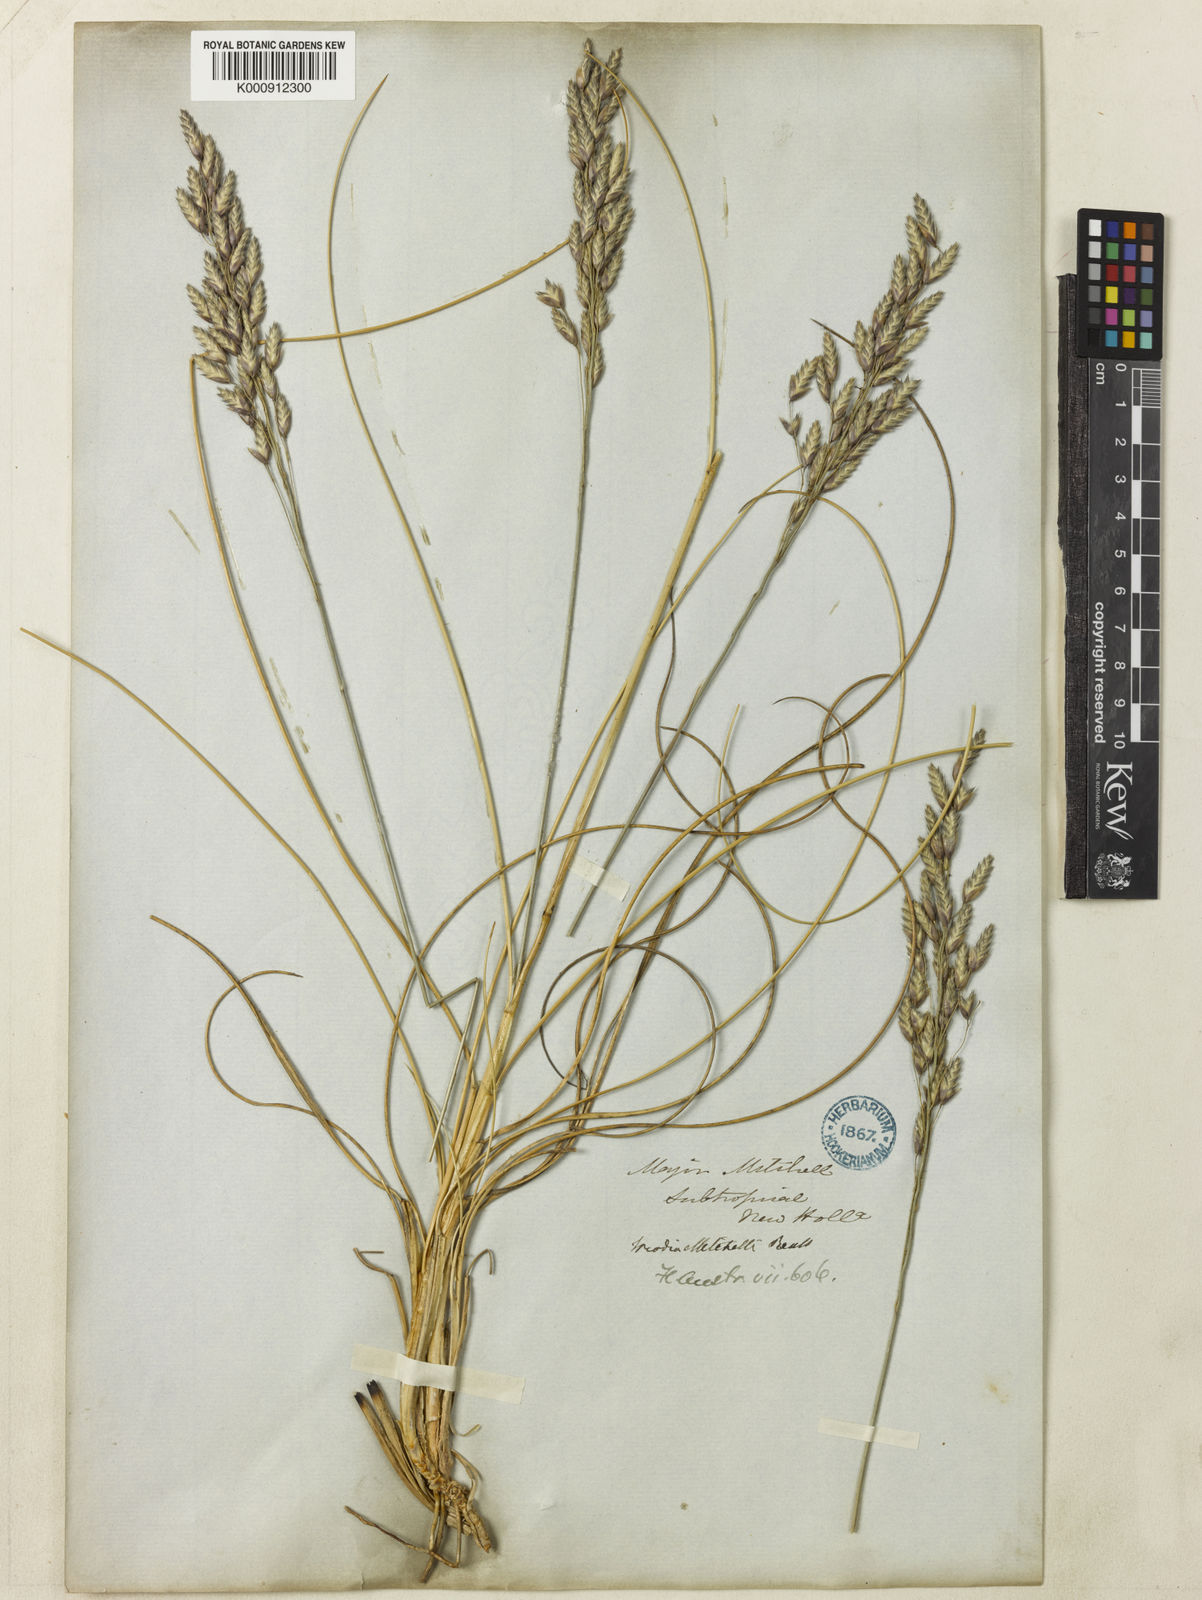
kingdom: Plantae
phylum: Tracheophyta
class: Liliopsida
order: Poales
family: Poaceae
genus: Triodia
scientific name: Triodia mitchellii
